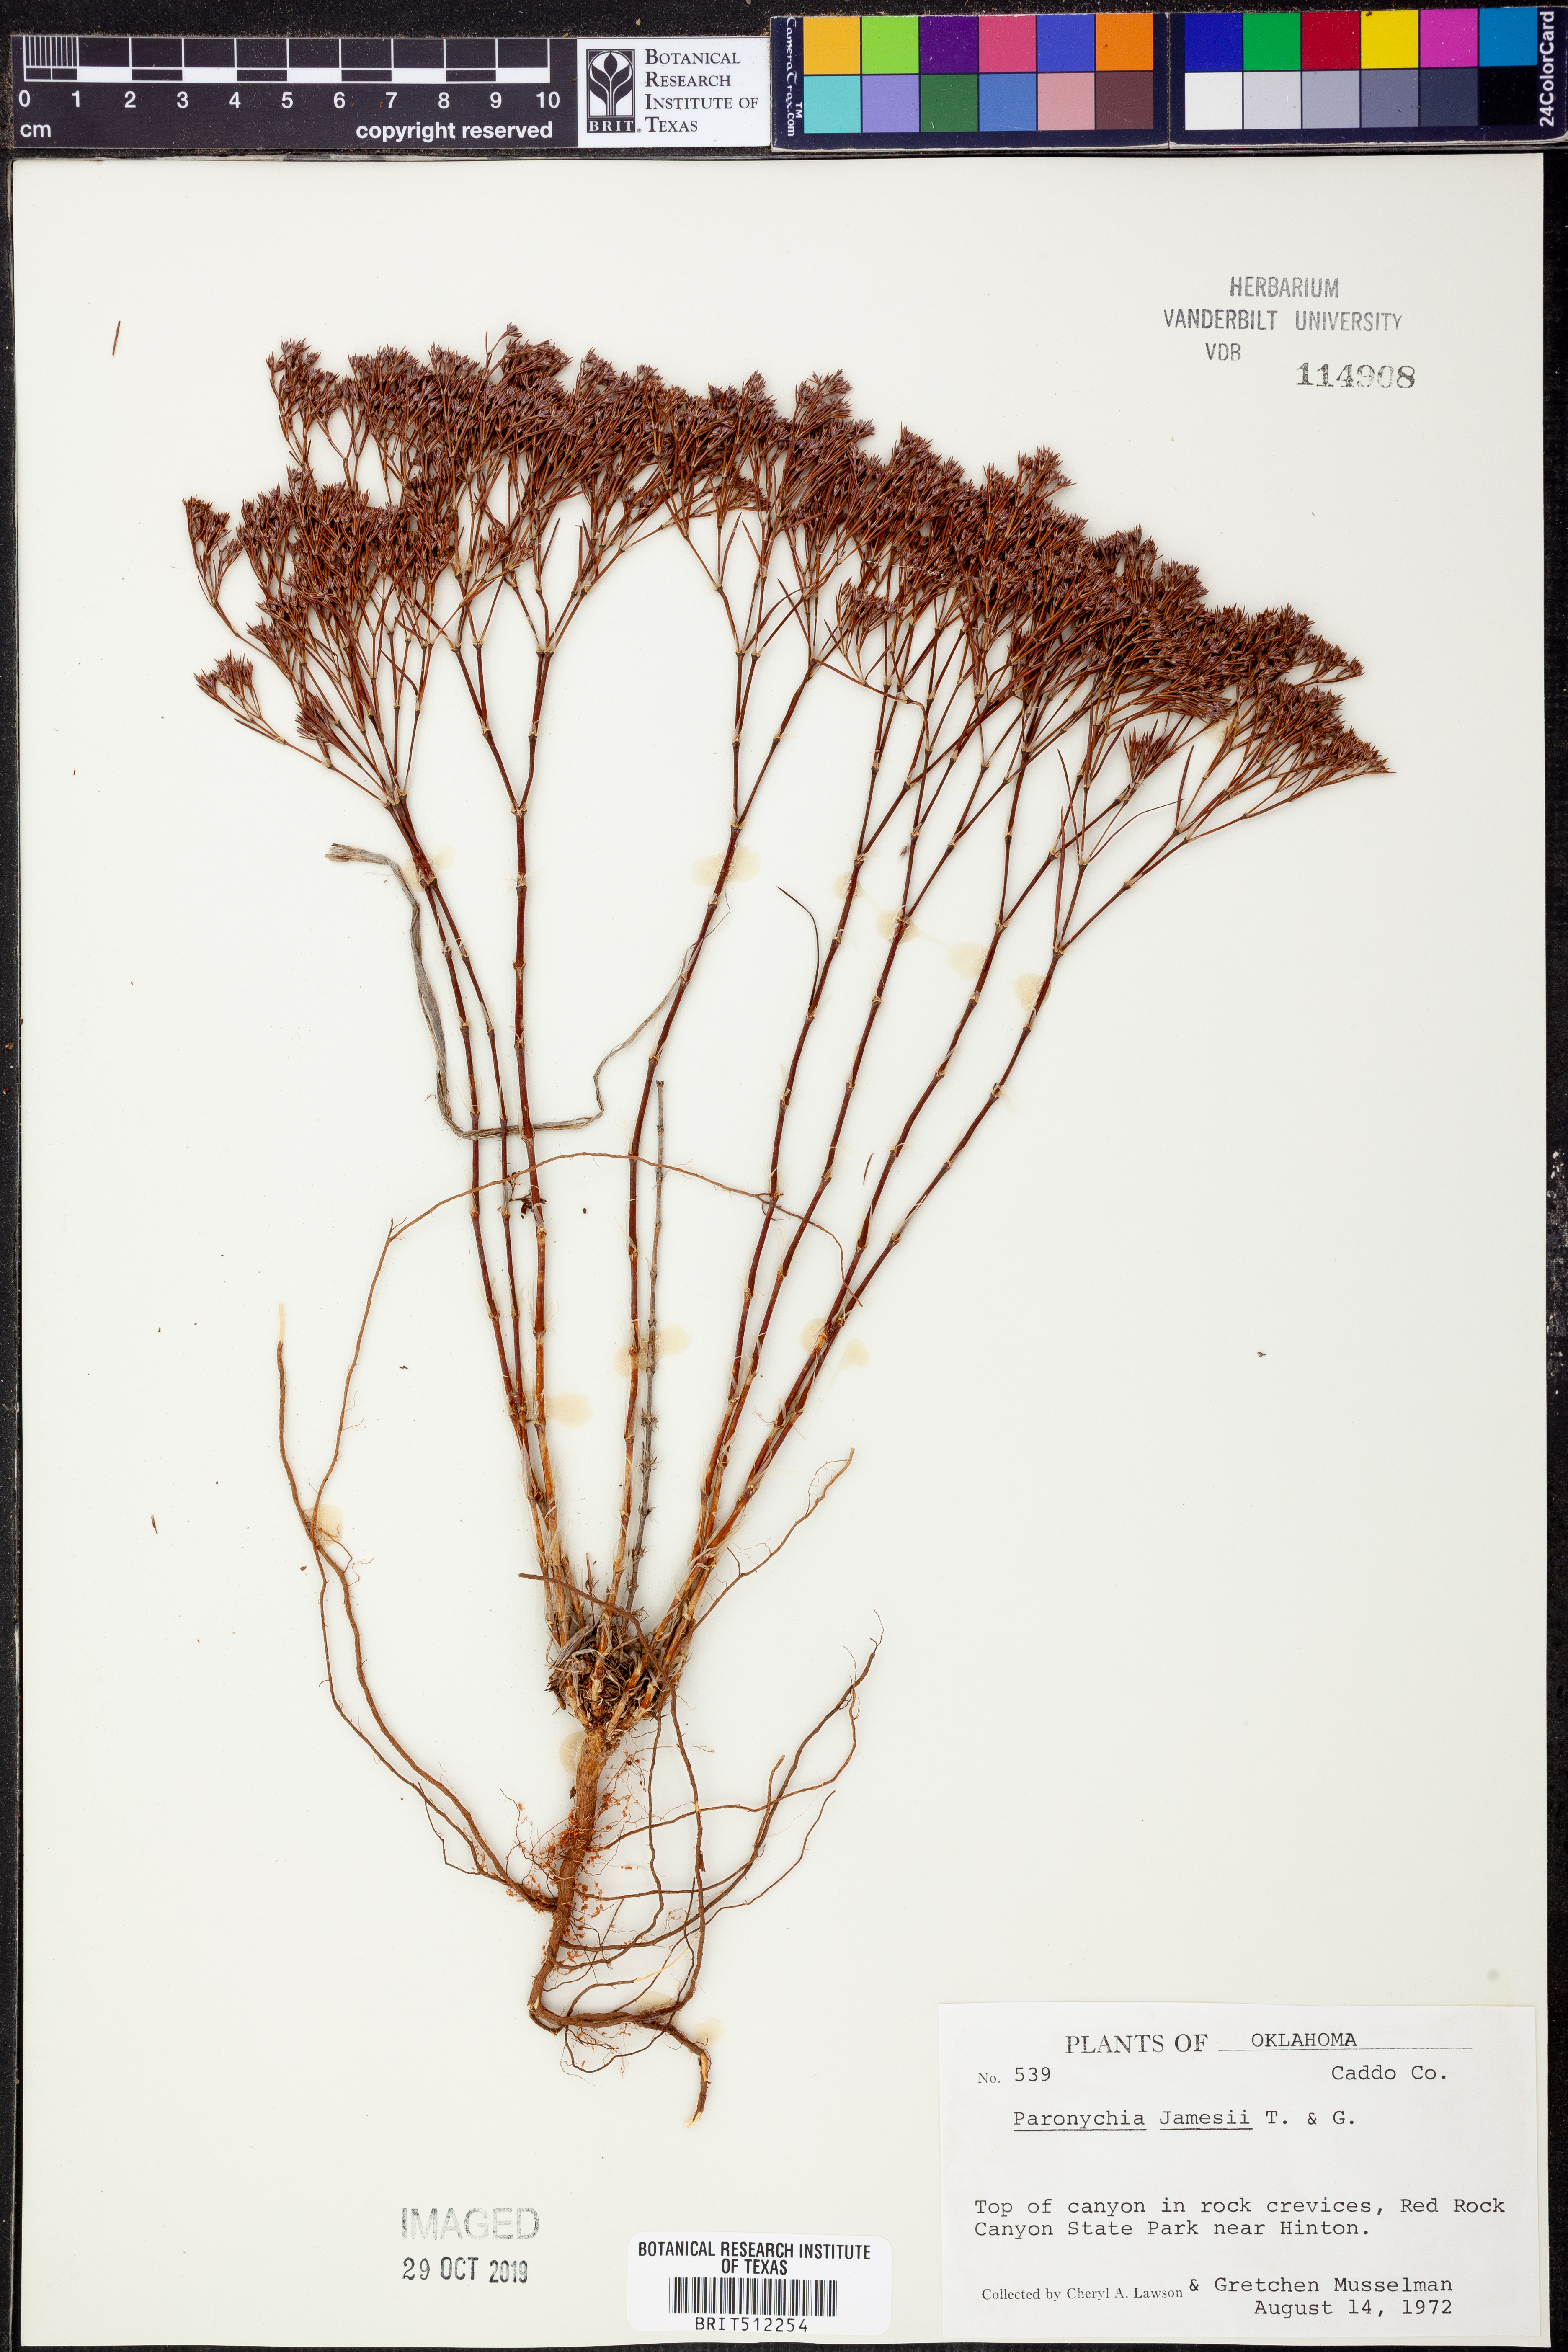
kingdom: Plantae
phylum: Tracheophyta
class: Magnoliopsida
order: Caryophyllales
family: Caryophyllaceae
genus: Paronychia
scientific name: Paronychia jamesii
